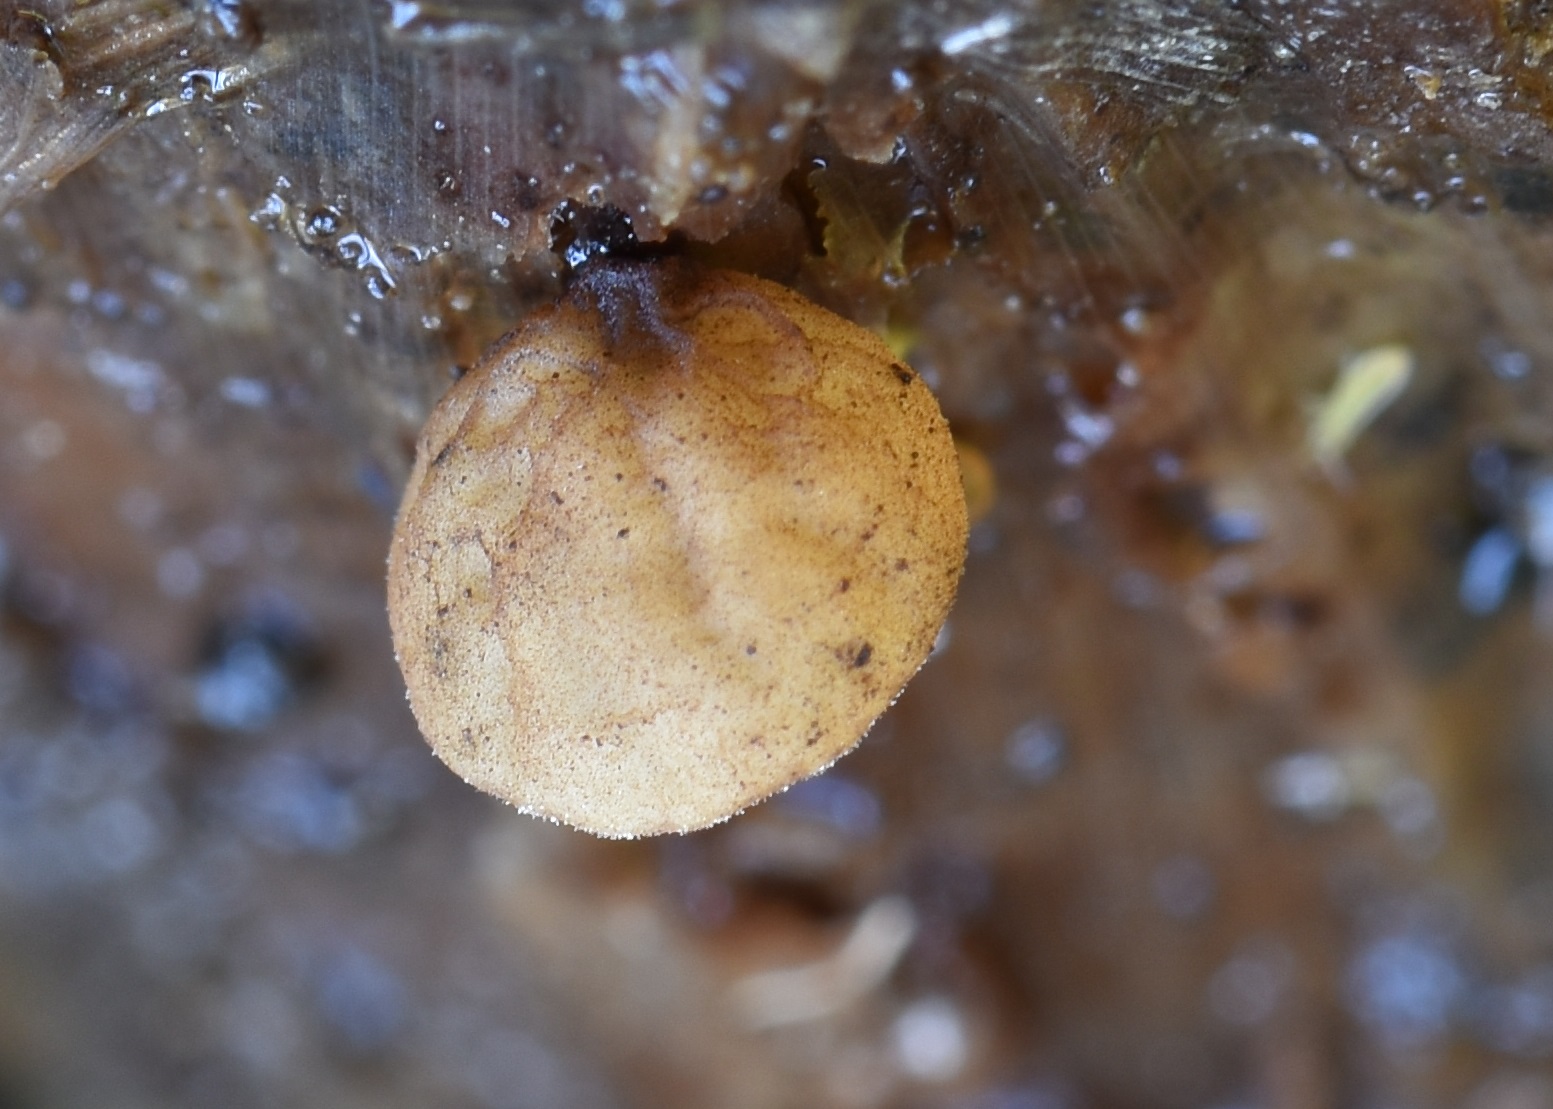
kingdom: Fungi
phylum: Basidiomycota
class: Agaricomycetes
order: Agaricales
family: Physalacriaceae
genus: Gloiocephala
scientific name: Gloiocephala menieri
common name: dunhammer-spatelhat
